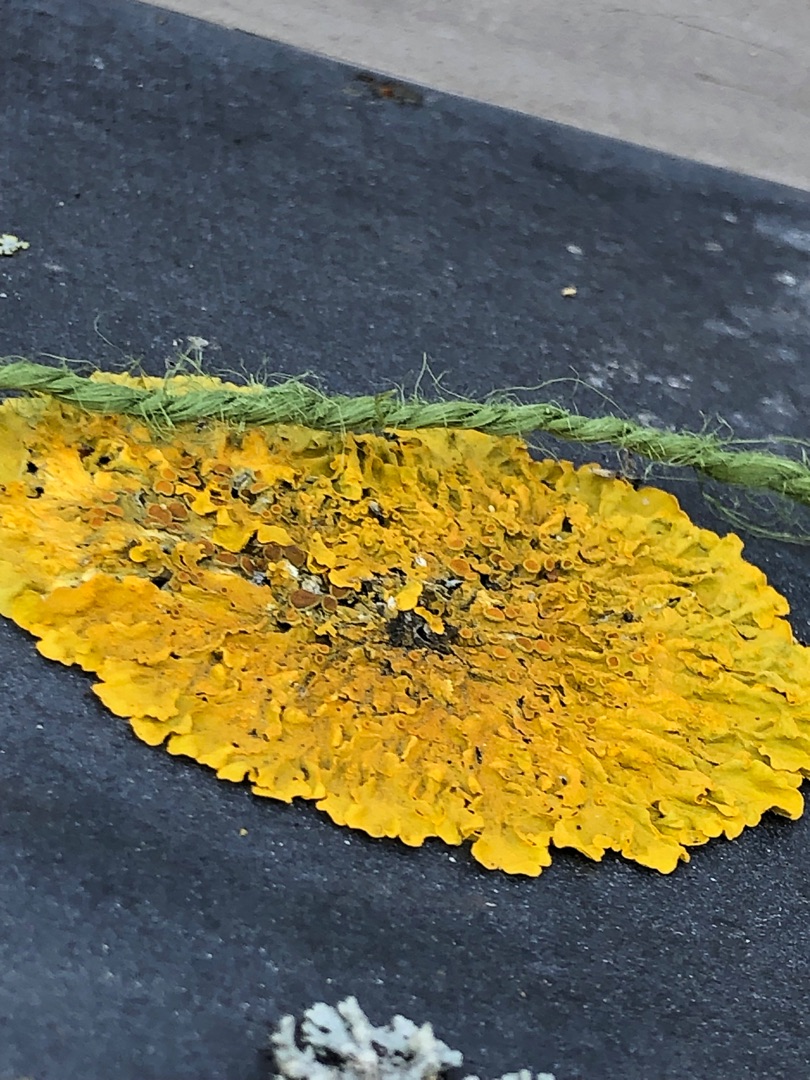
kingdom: Fungi
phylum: Ascomycota
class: Lecanoromycetes
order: Teloschistales
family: Teloschistaceae
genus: Xanthoria
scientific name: Xanthoria parietina
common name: Almindelig væggelav
